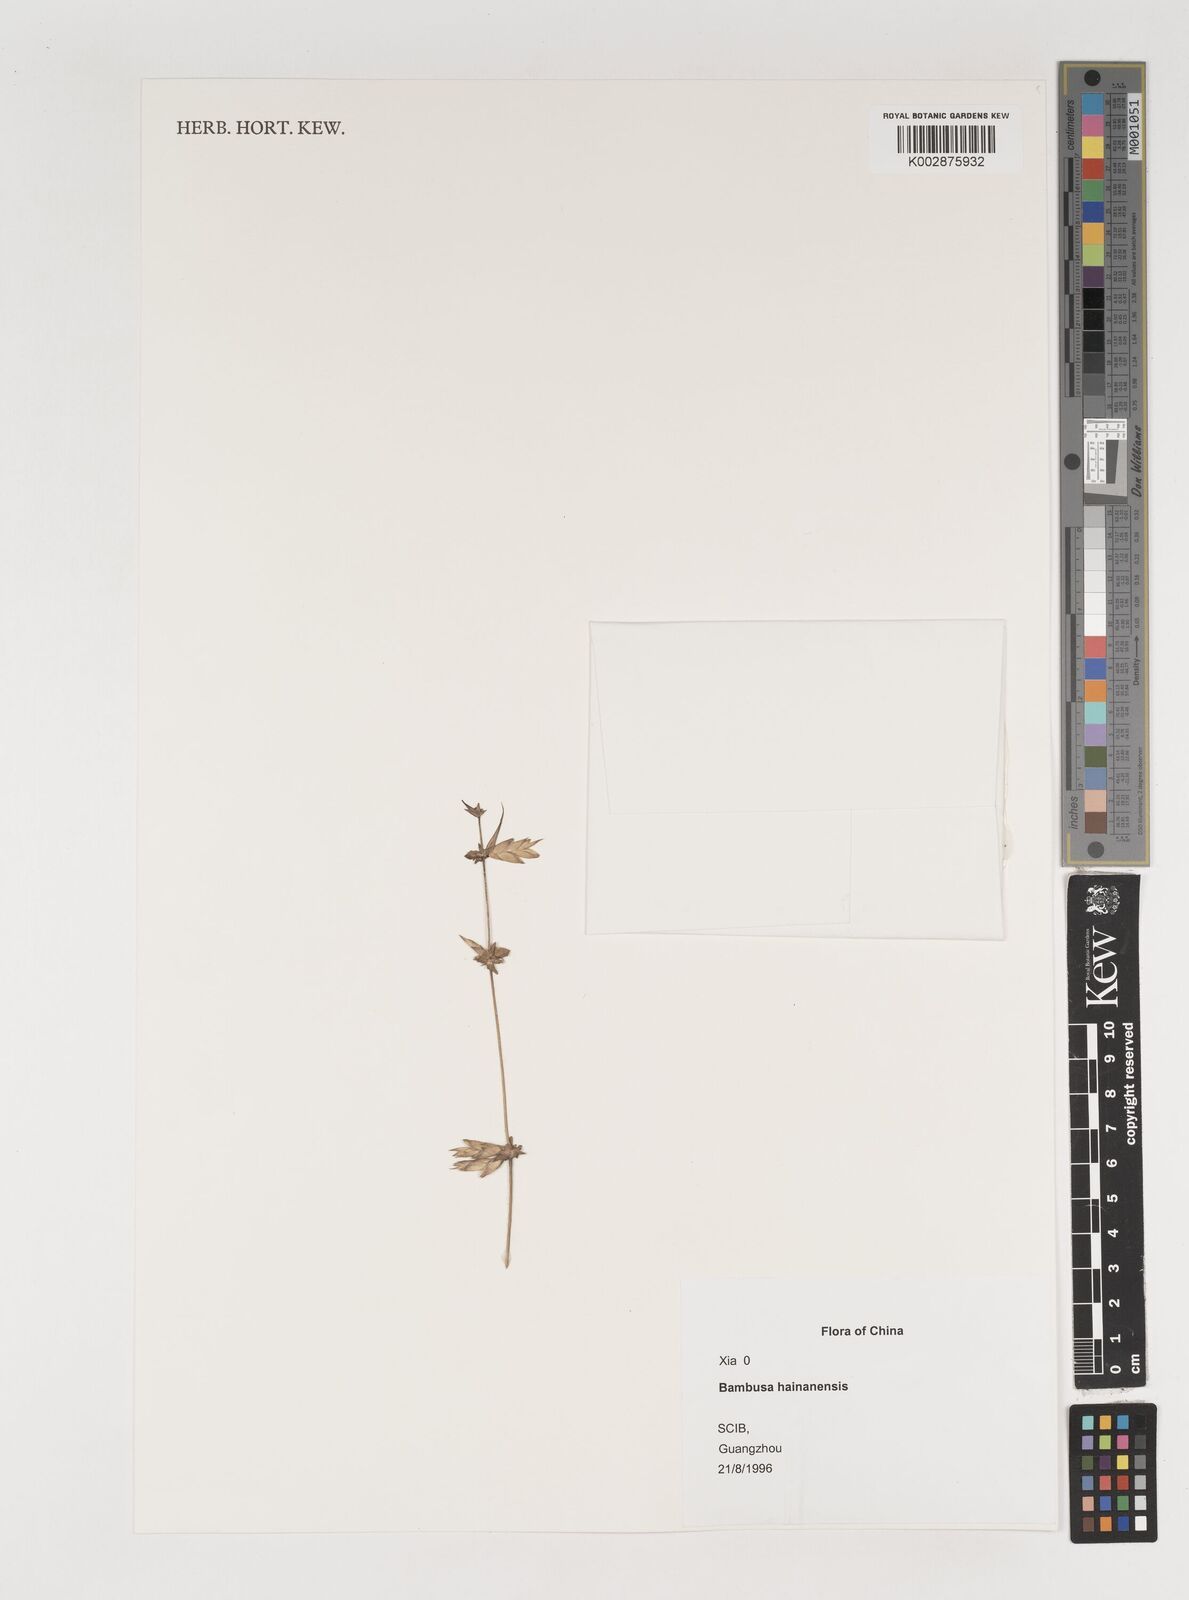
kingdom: Plantae
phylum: Tracheophyta
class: Liliopsida
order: Poales
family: Poaceae
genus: Bambusa
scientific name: Bambusa hainanensis
